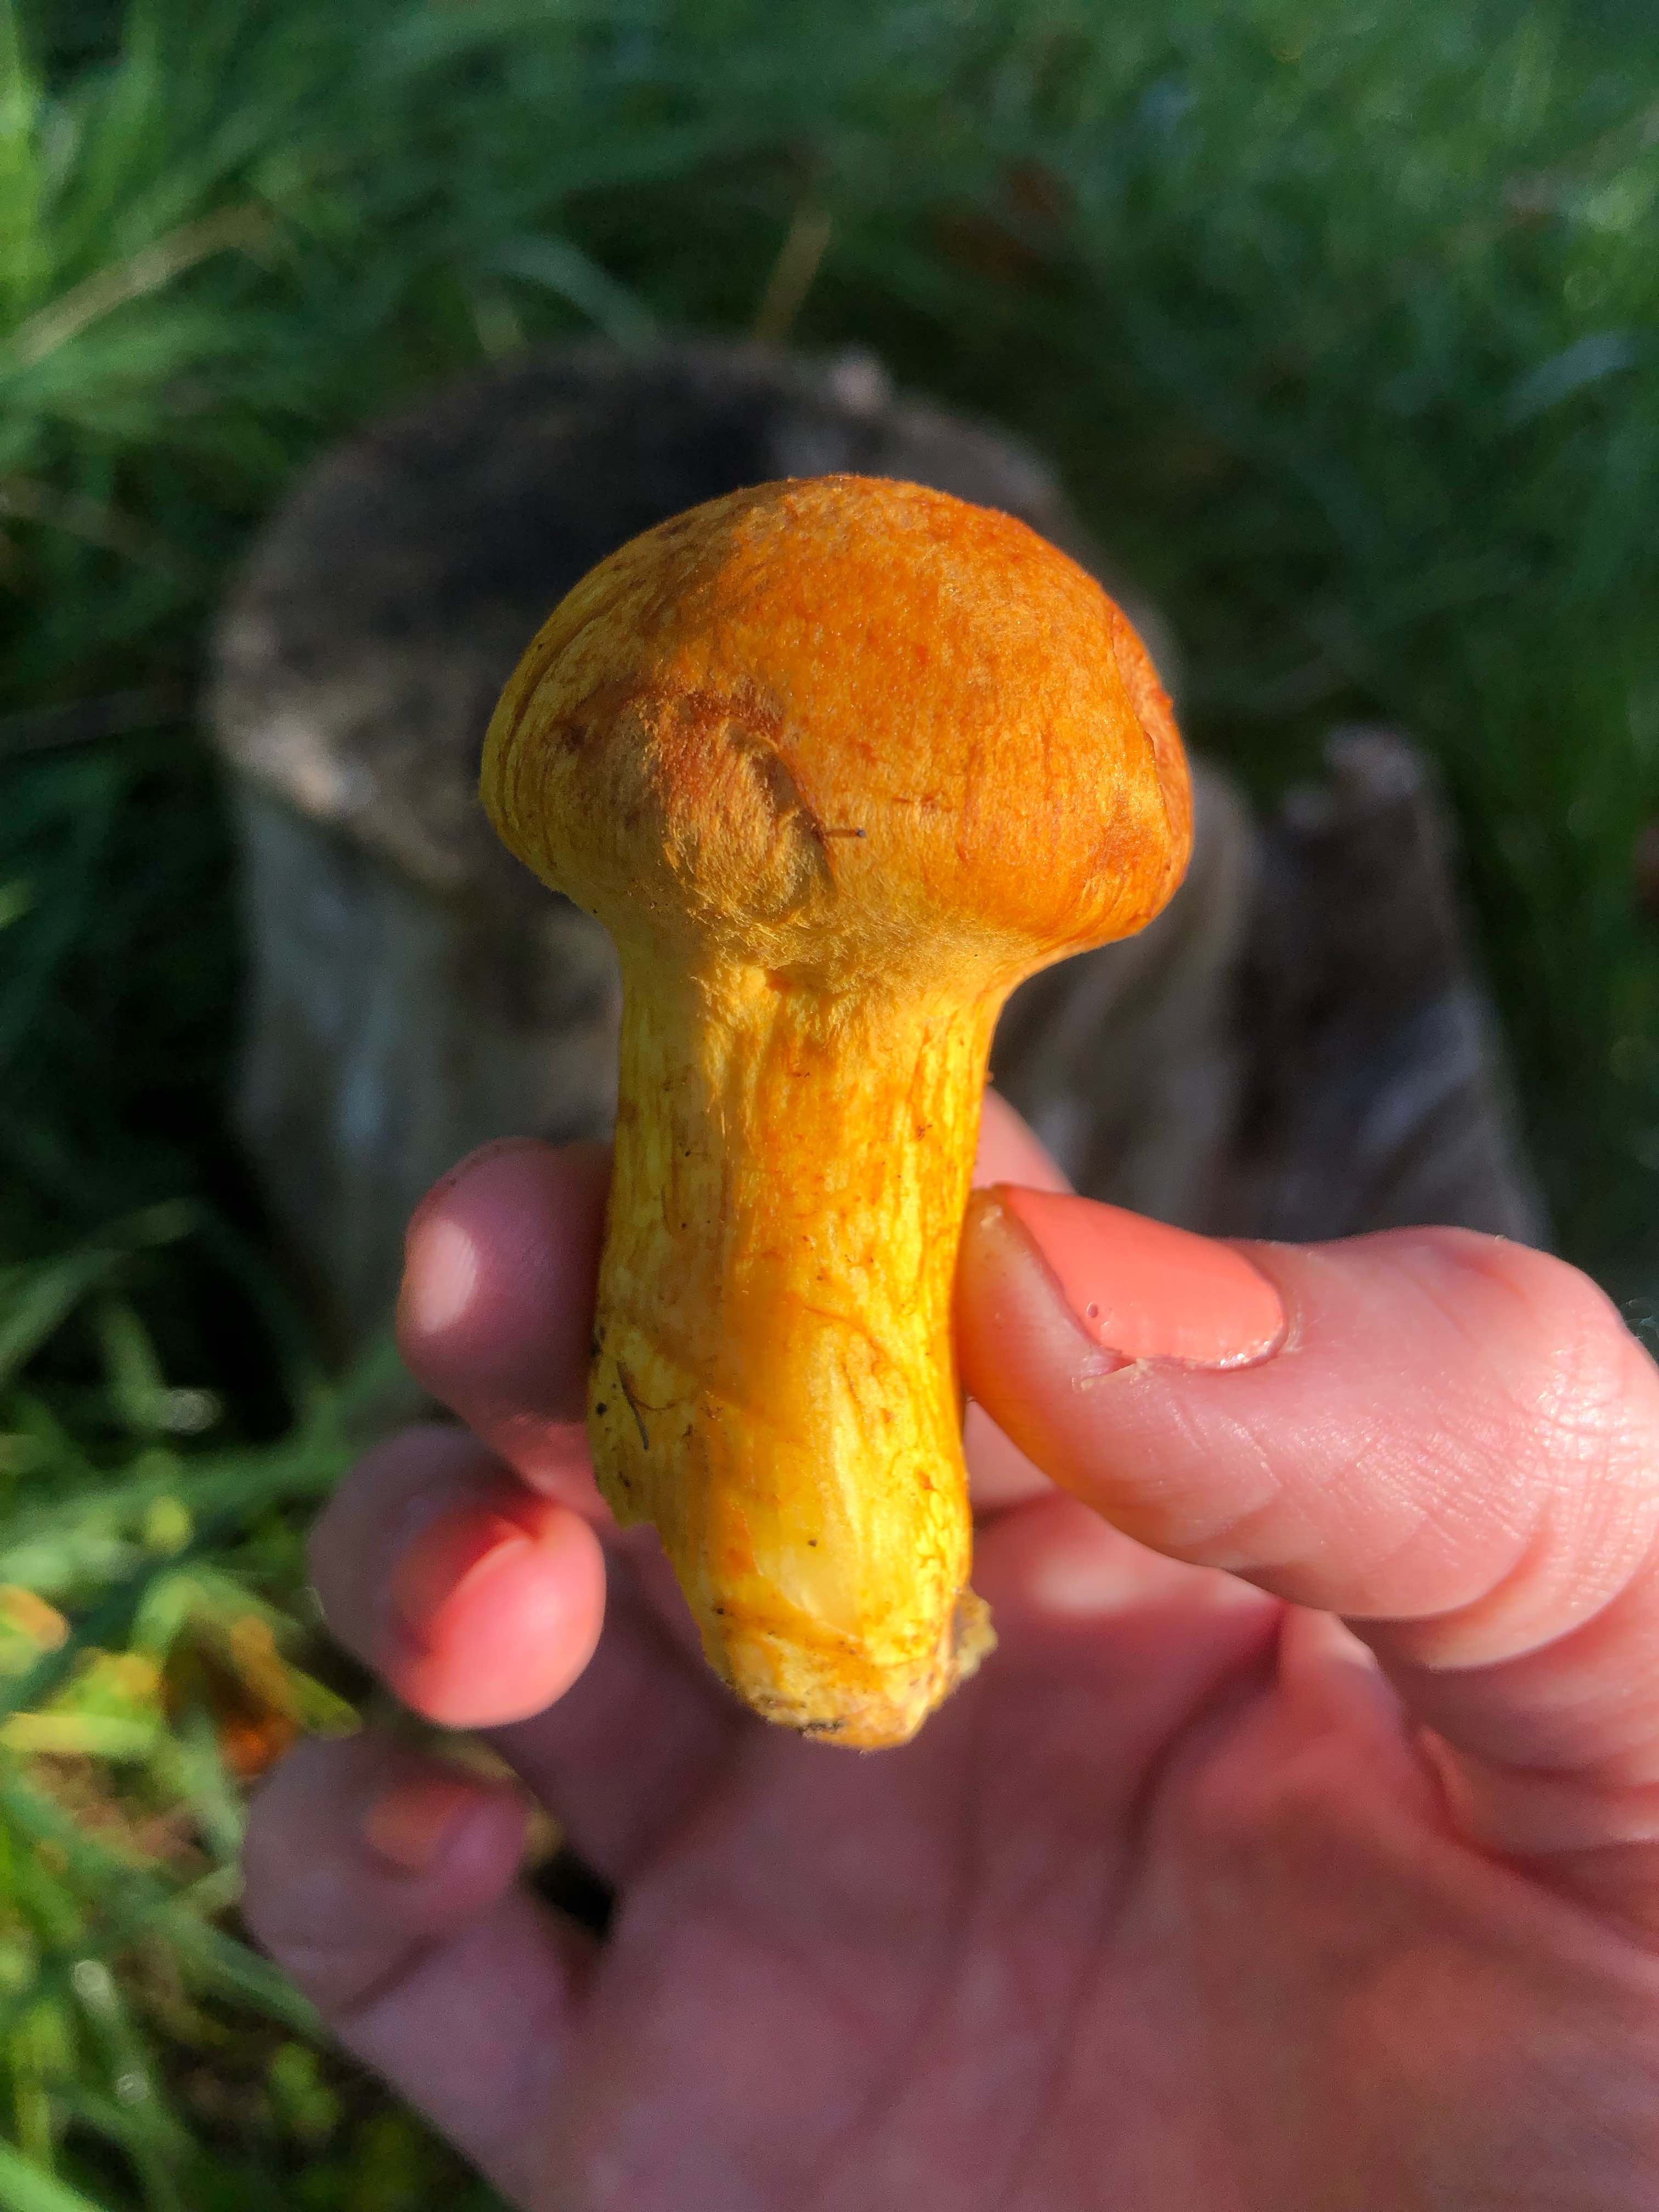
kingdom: Fungi
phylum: Basidiomycota
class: Agaricomycetes
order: Agaricales
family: Hymenogastraceae
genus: Gymnopilus
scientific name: Gymnopilus spectabilis
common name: fibret flammehat
